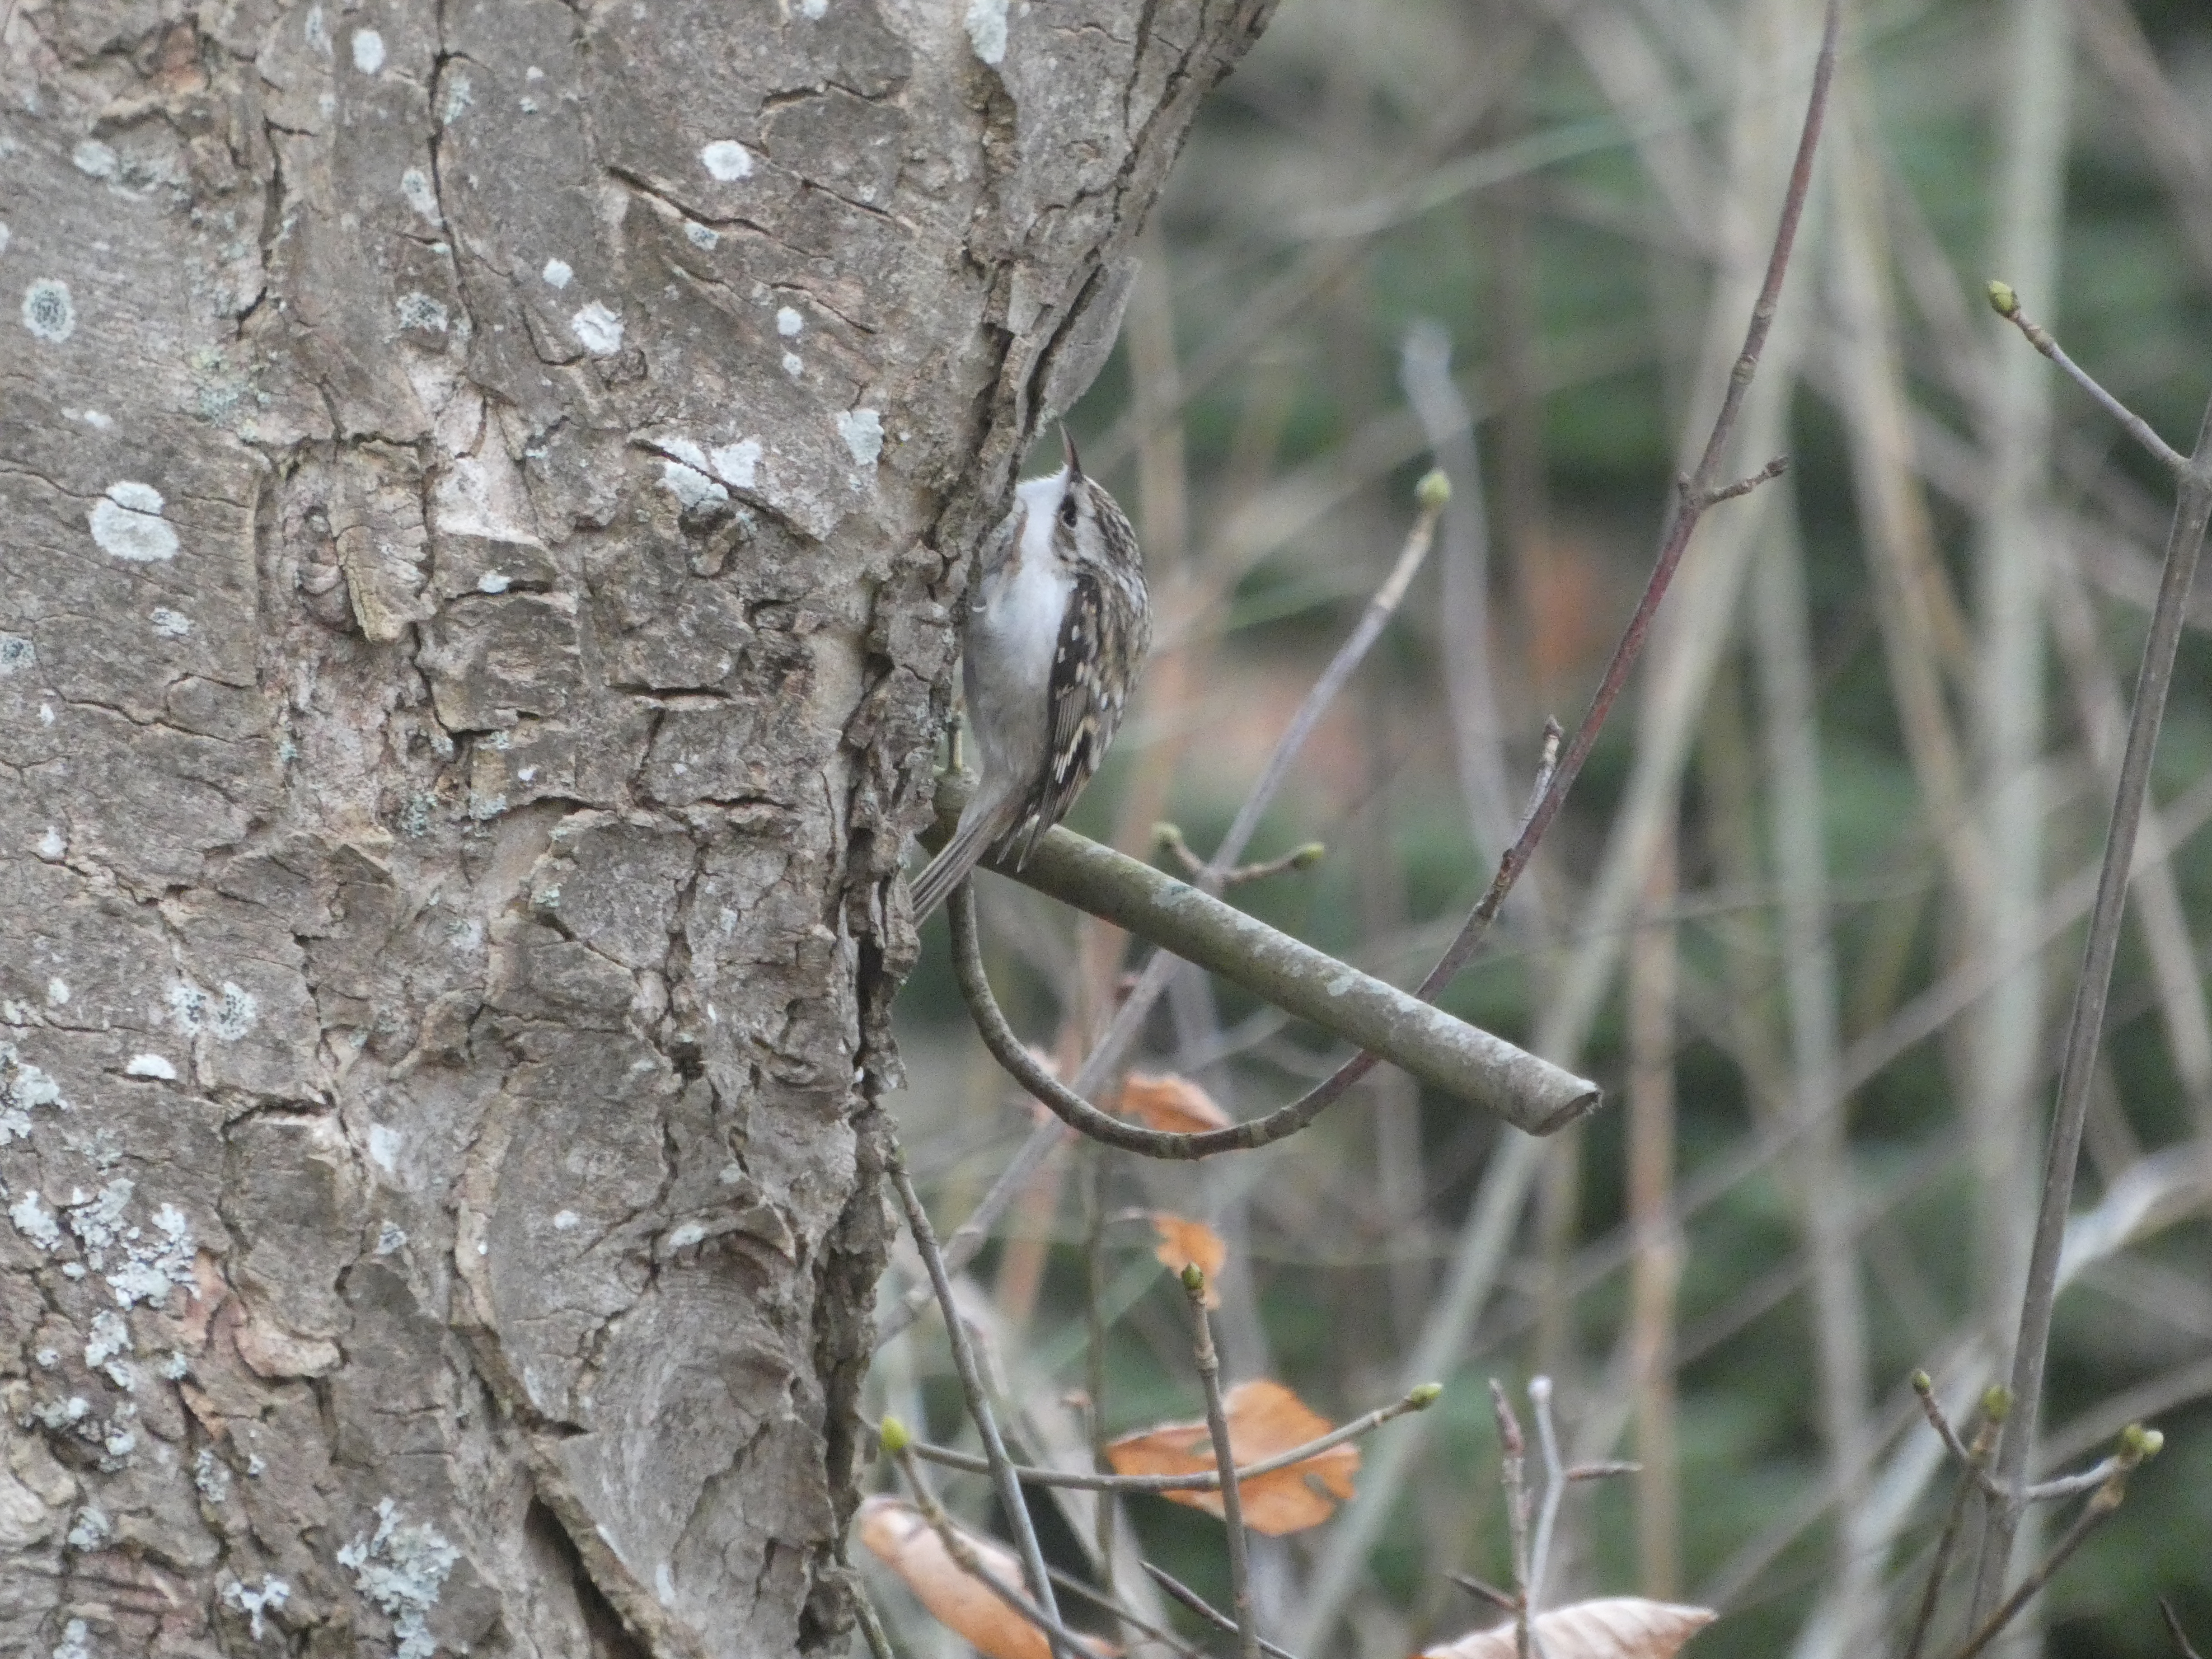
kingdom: Animalia
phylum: Chordata
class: Aves
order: Passeriformes
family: Certhiidae
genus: Certhia
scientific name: Certhia familiaris
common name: Træløber
